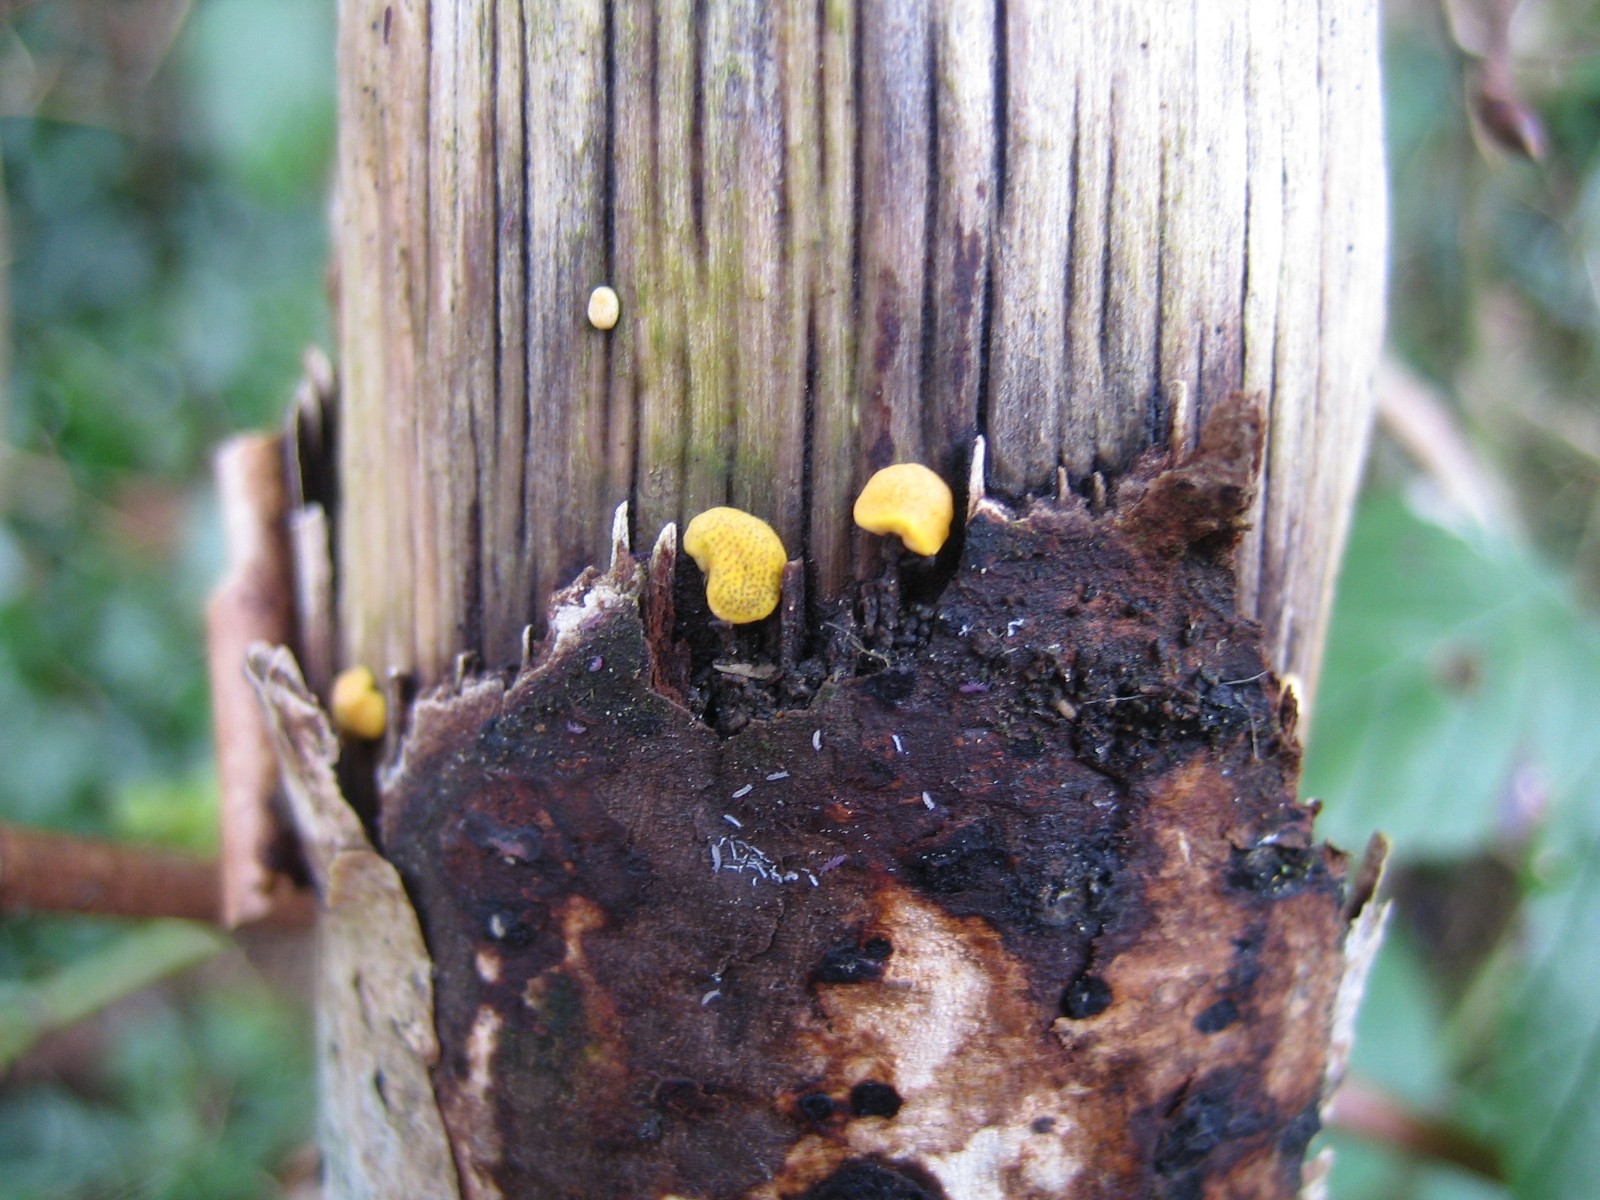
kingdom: Fungi
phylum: Ascomycota
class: Sordariomycetes
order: Hypocreales
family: Hypocreaceae
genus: Trichoderma
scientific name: Trichoderma aureoviride
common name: æggegul kødkerne
